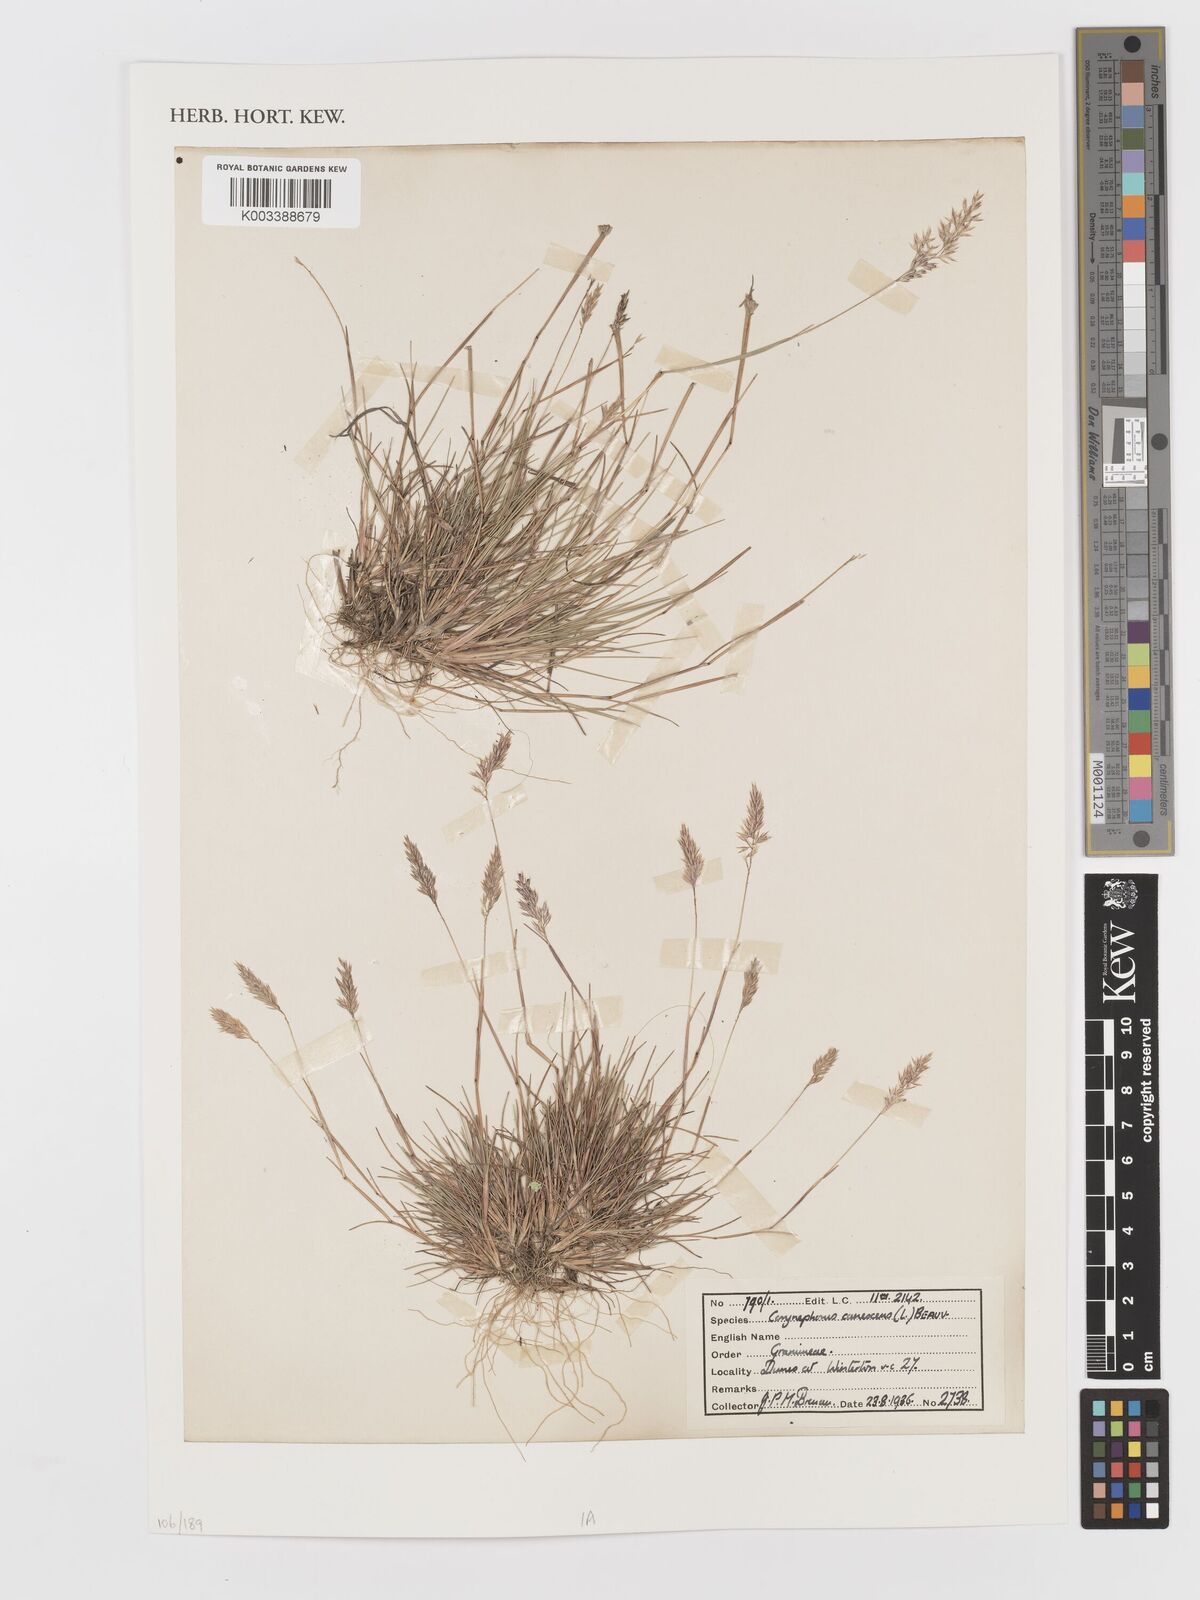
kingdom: Plantae
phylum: Tracheophyta
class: Liliopsida
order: Poales
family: Poaceae
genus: Corynephorus
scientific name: Corynephorus canescens
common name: Grey hair-grass
